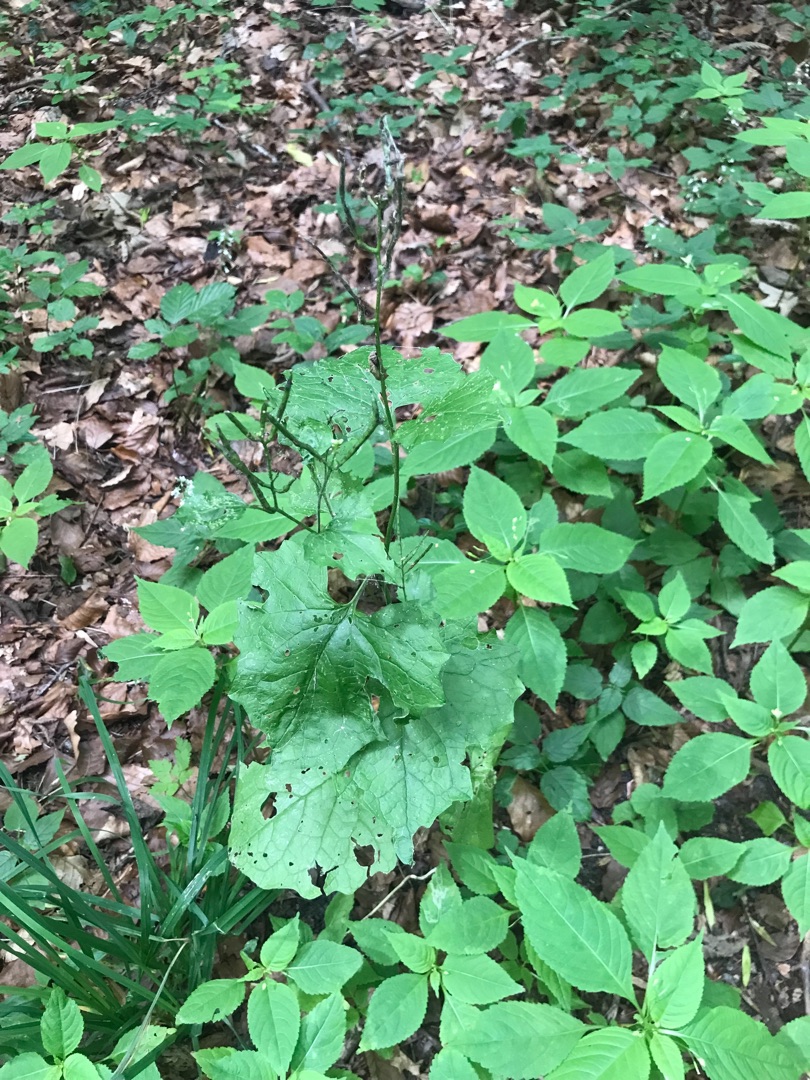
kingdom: Plantae
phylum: Tracheophyta
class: Magnoliopsida
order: Brassicales
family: Brassicaceae
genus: Alliaria
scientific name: Alliaria petiolata
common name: Løgkarse
